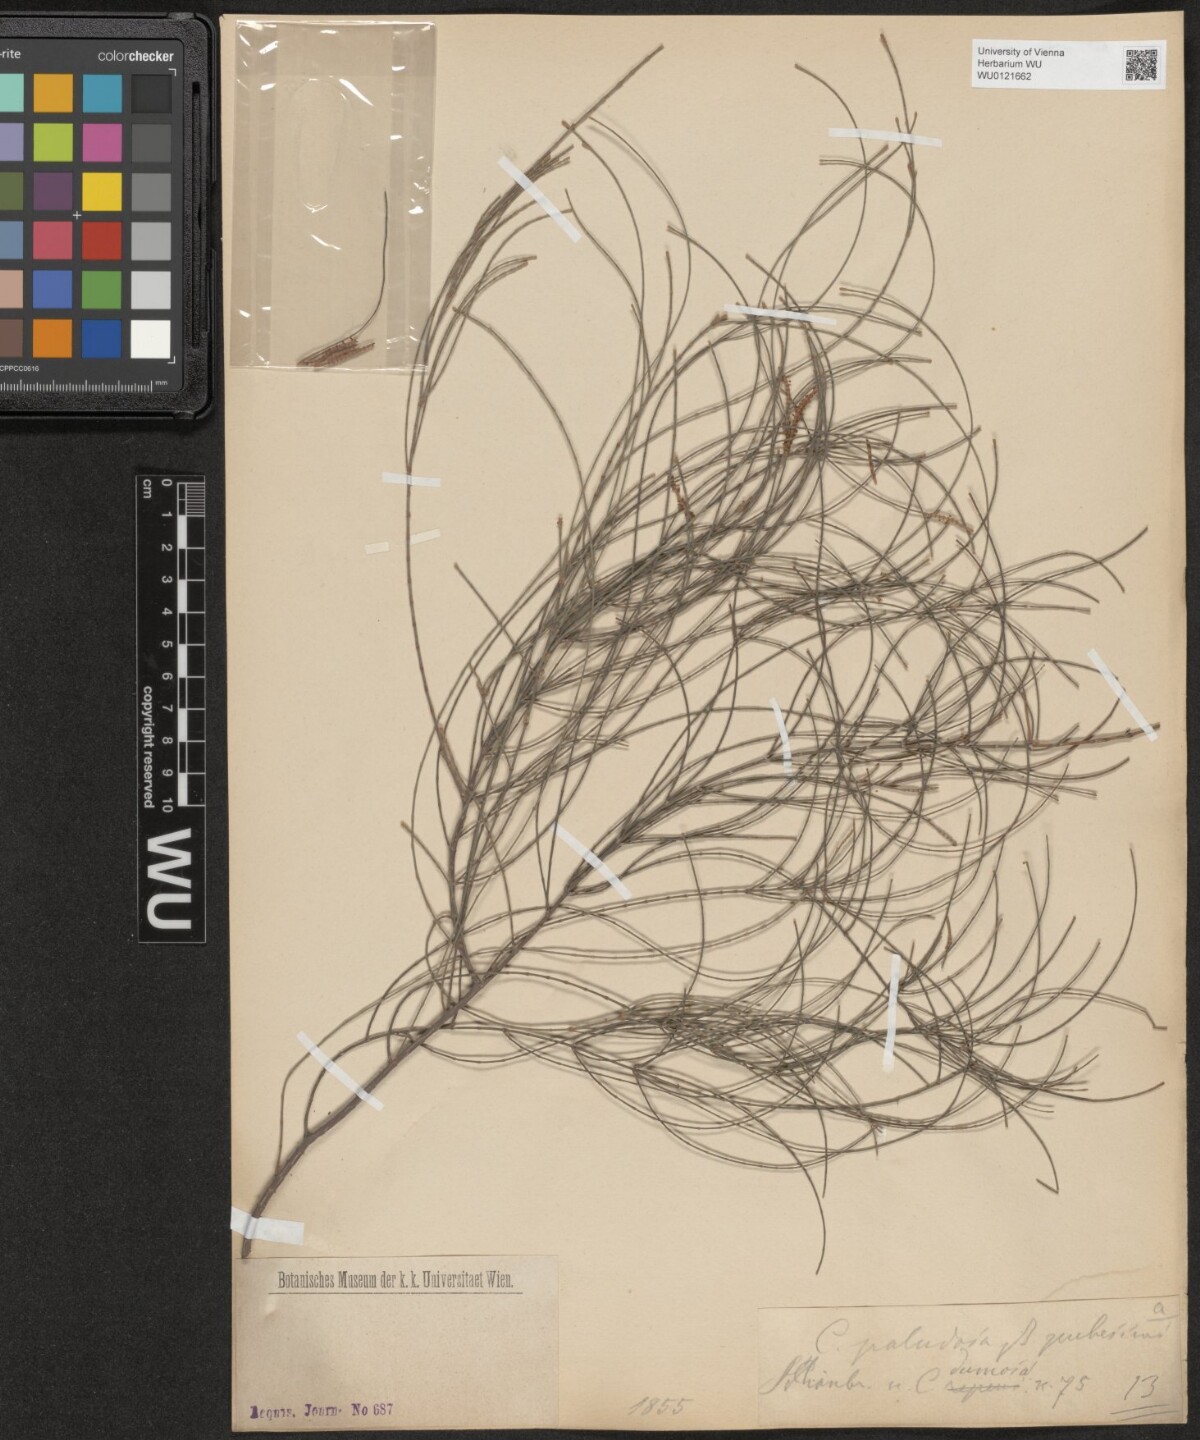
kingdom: Plantae
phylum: Tracheophyta
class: Magnoliopsida
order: Fagales
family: Casuarinaceae
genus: Allocasuarina
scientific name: Allocasuarina paludosa
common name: Scrub she-oak
